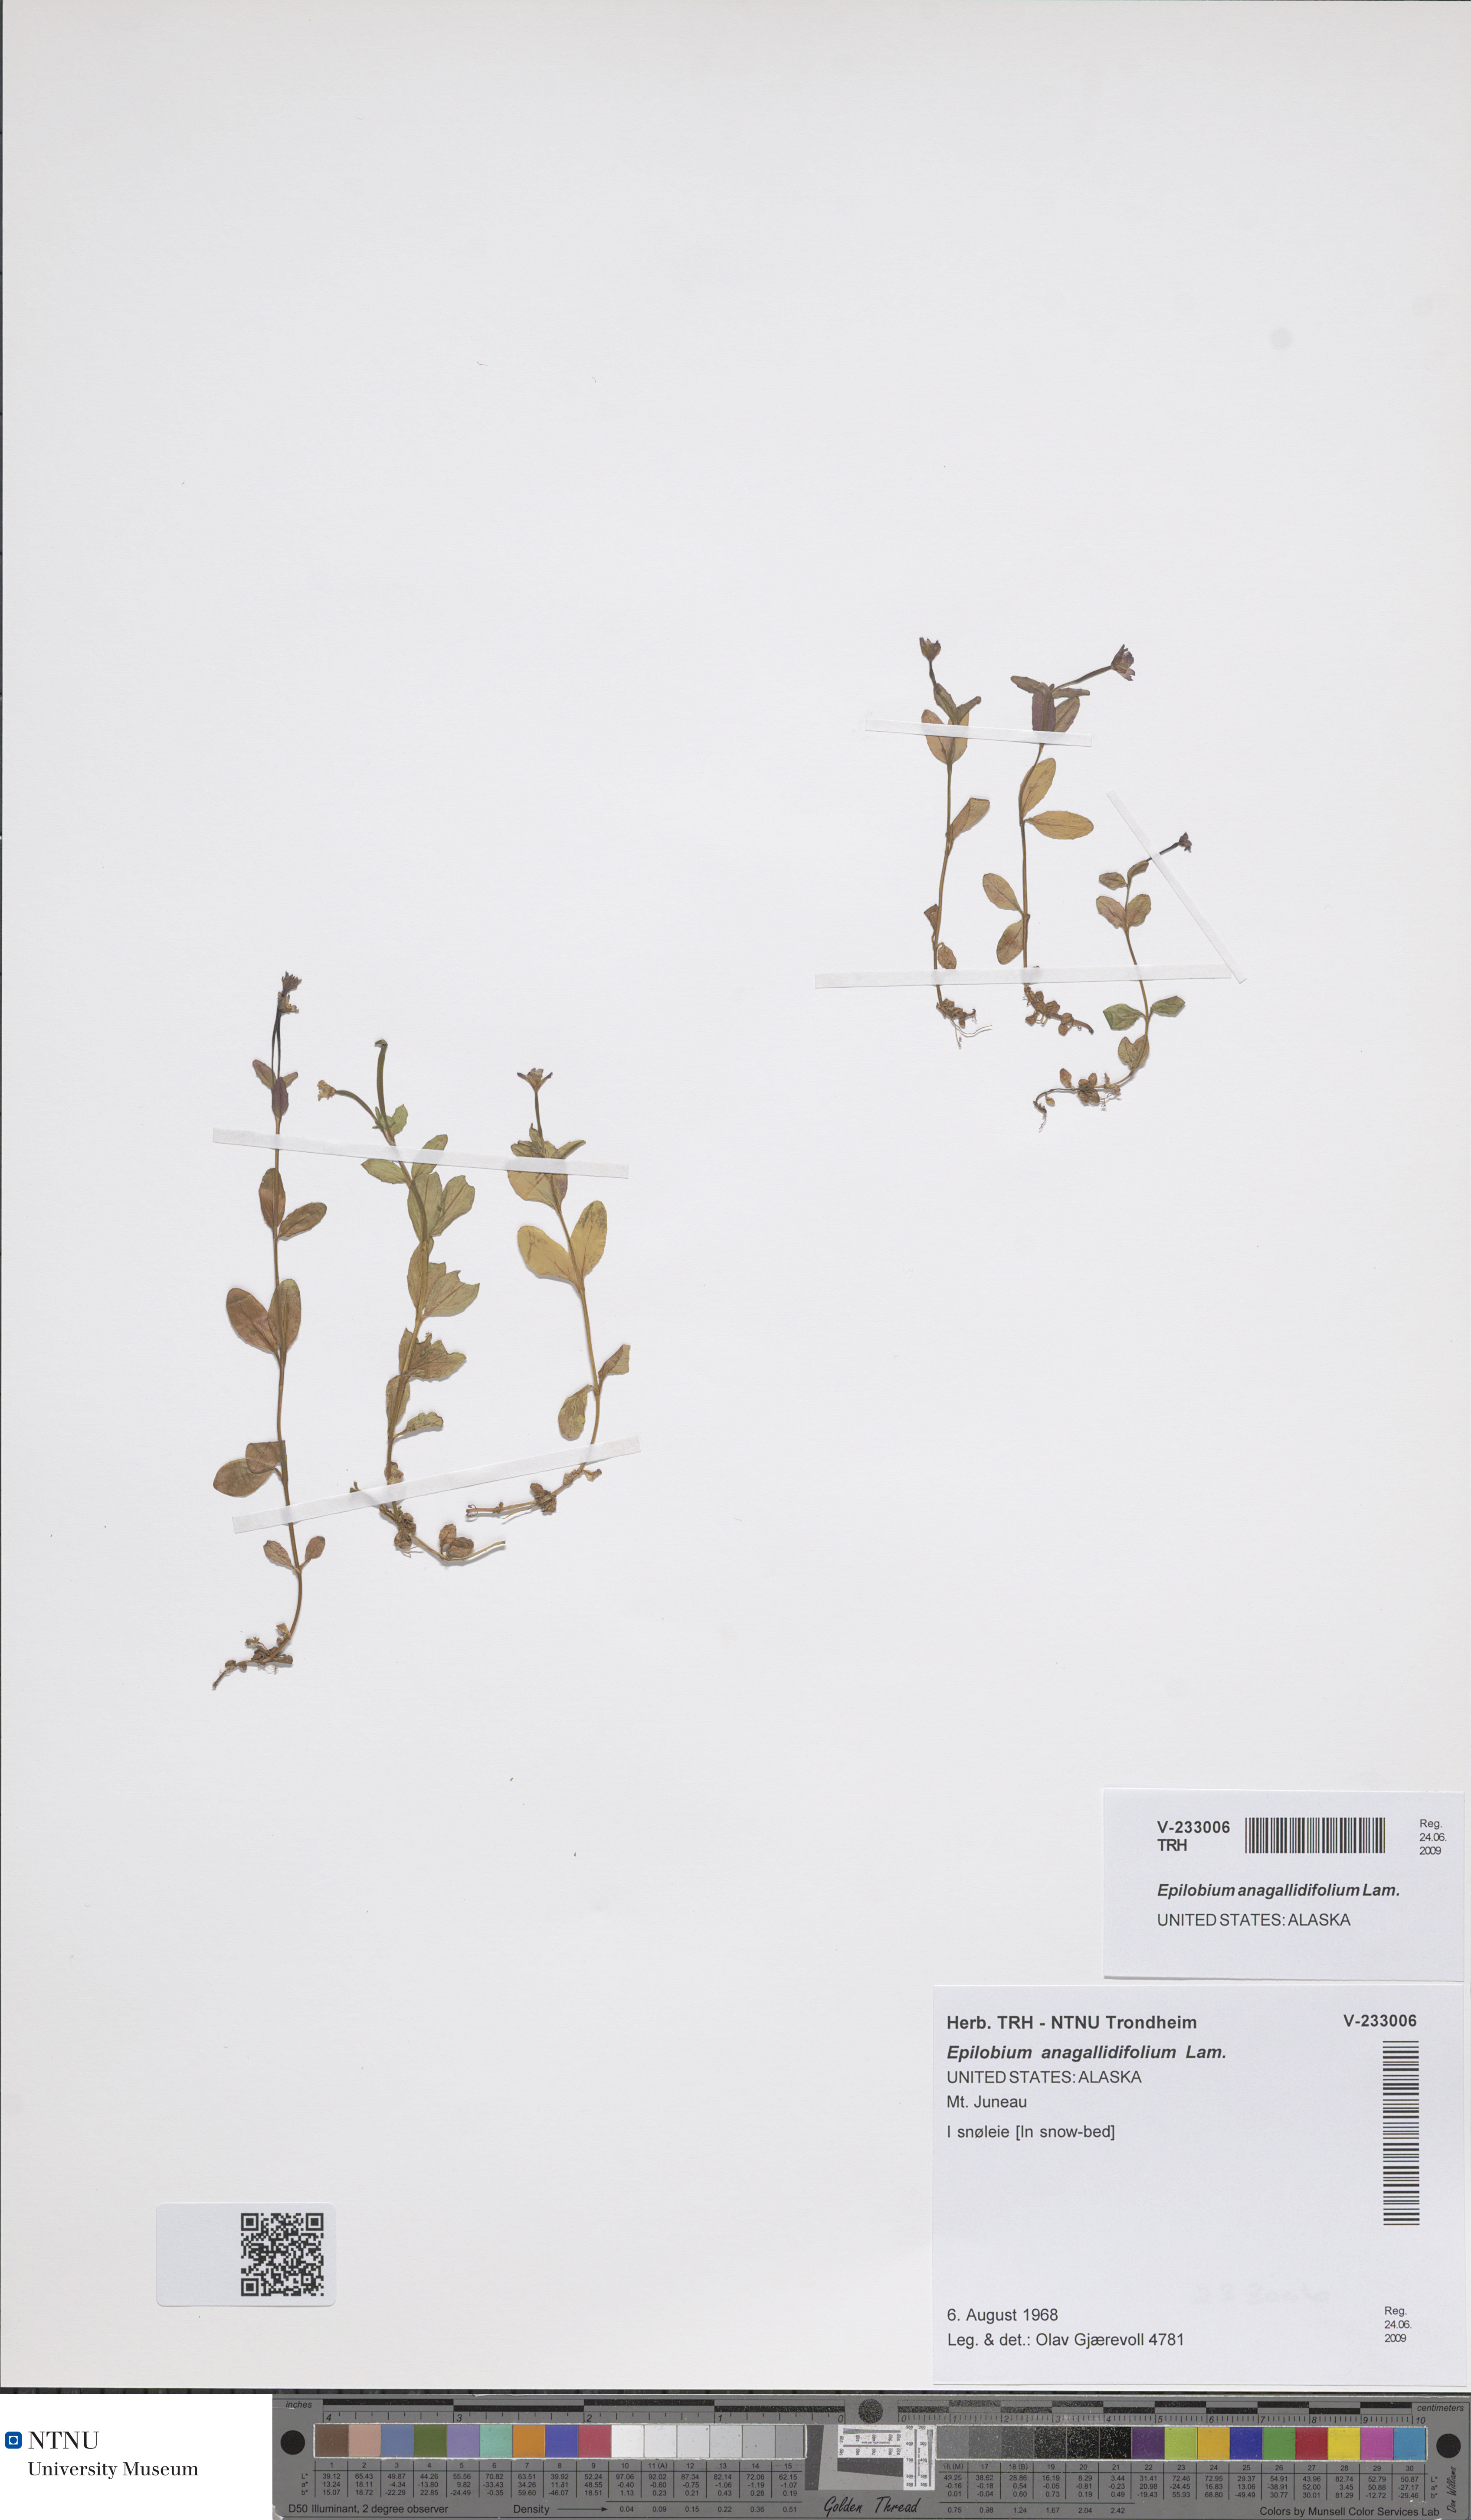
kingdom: Plantae
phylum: Tracheophyta
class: Magnoliopsida
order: Myrtales
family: Onagraceae
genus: Epilobium
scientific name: Epilobium anagallidifolium
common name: Alpine willowherb
